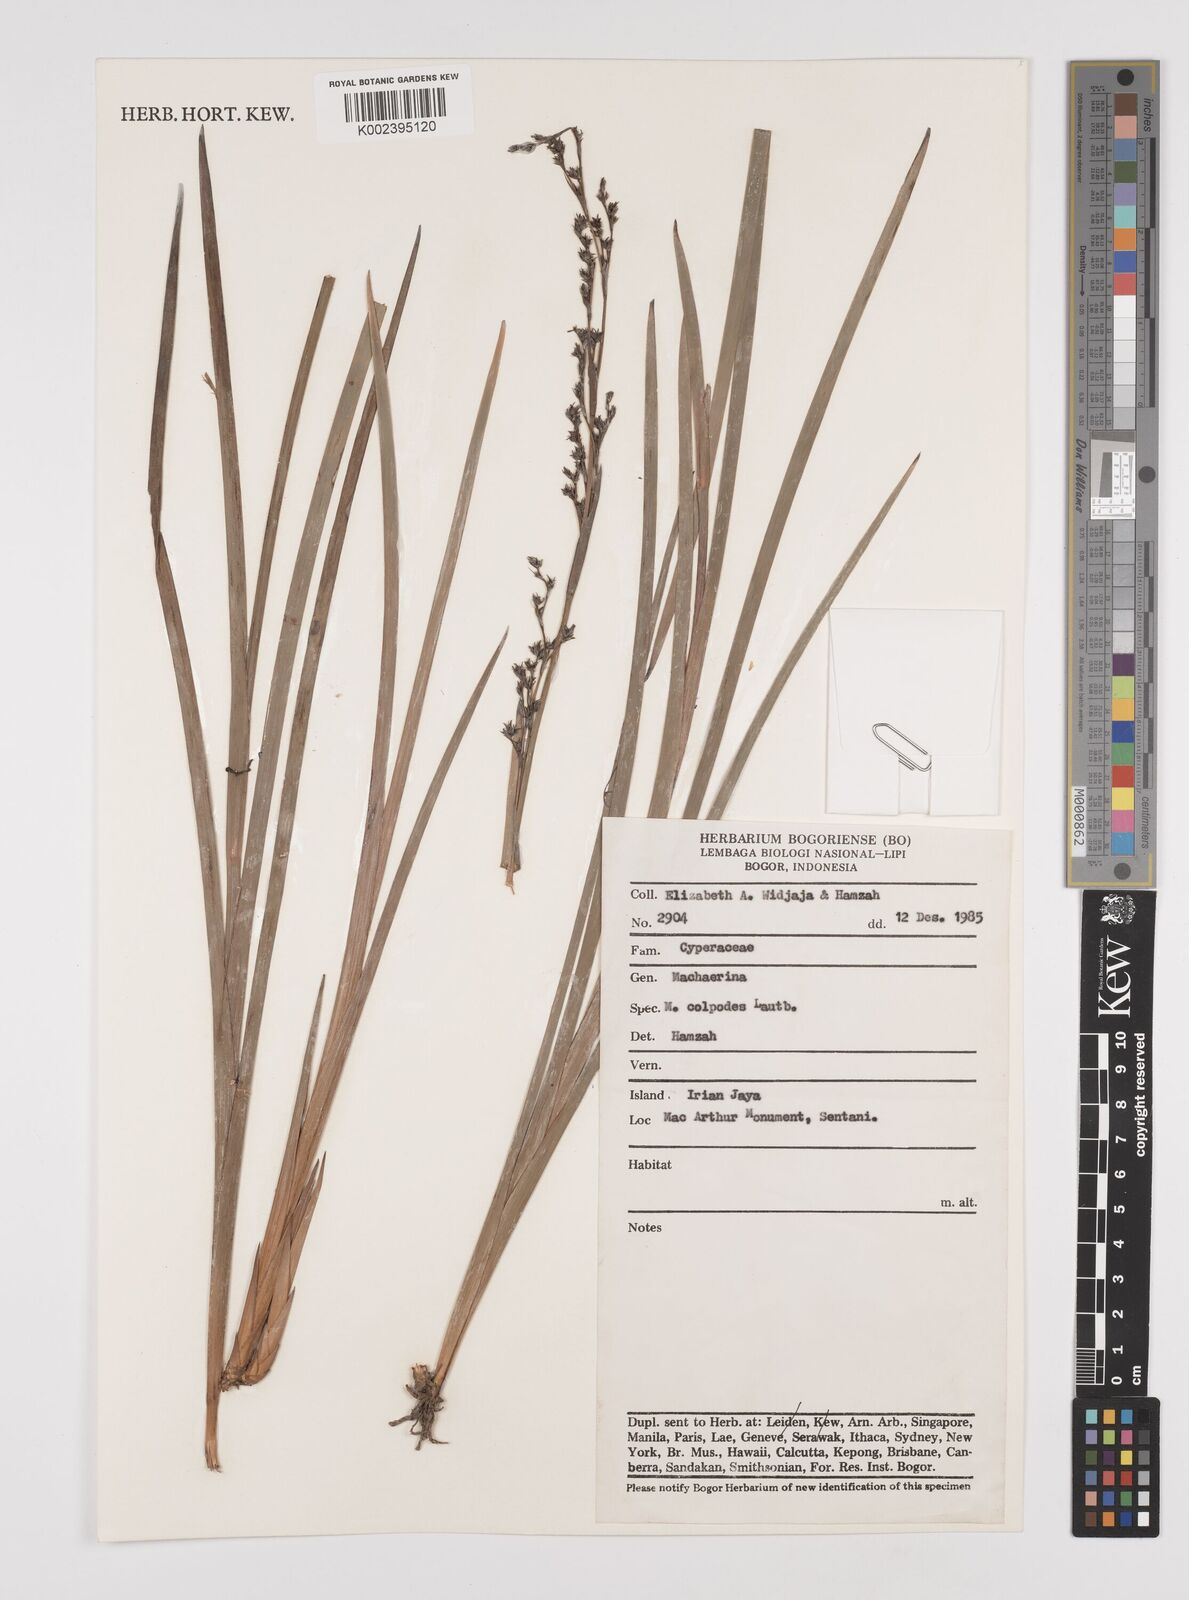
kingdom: Plantae
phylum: Tracheophyta
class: Liliopsida
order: Poales
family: Cyperaceae
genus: Machaerina
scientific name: Machaerina glomerata
